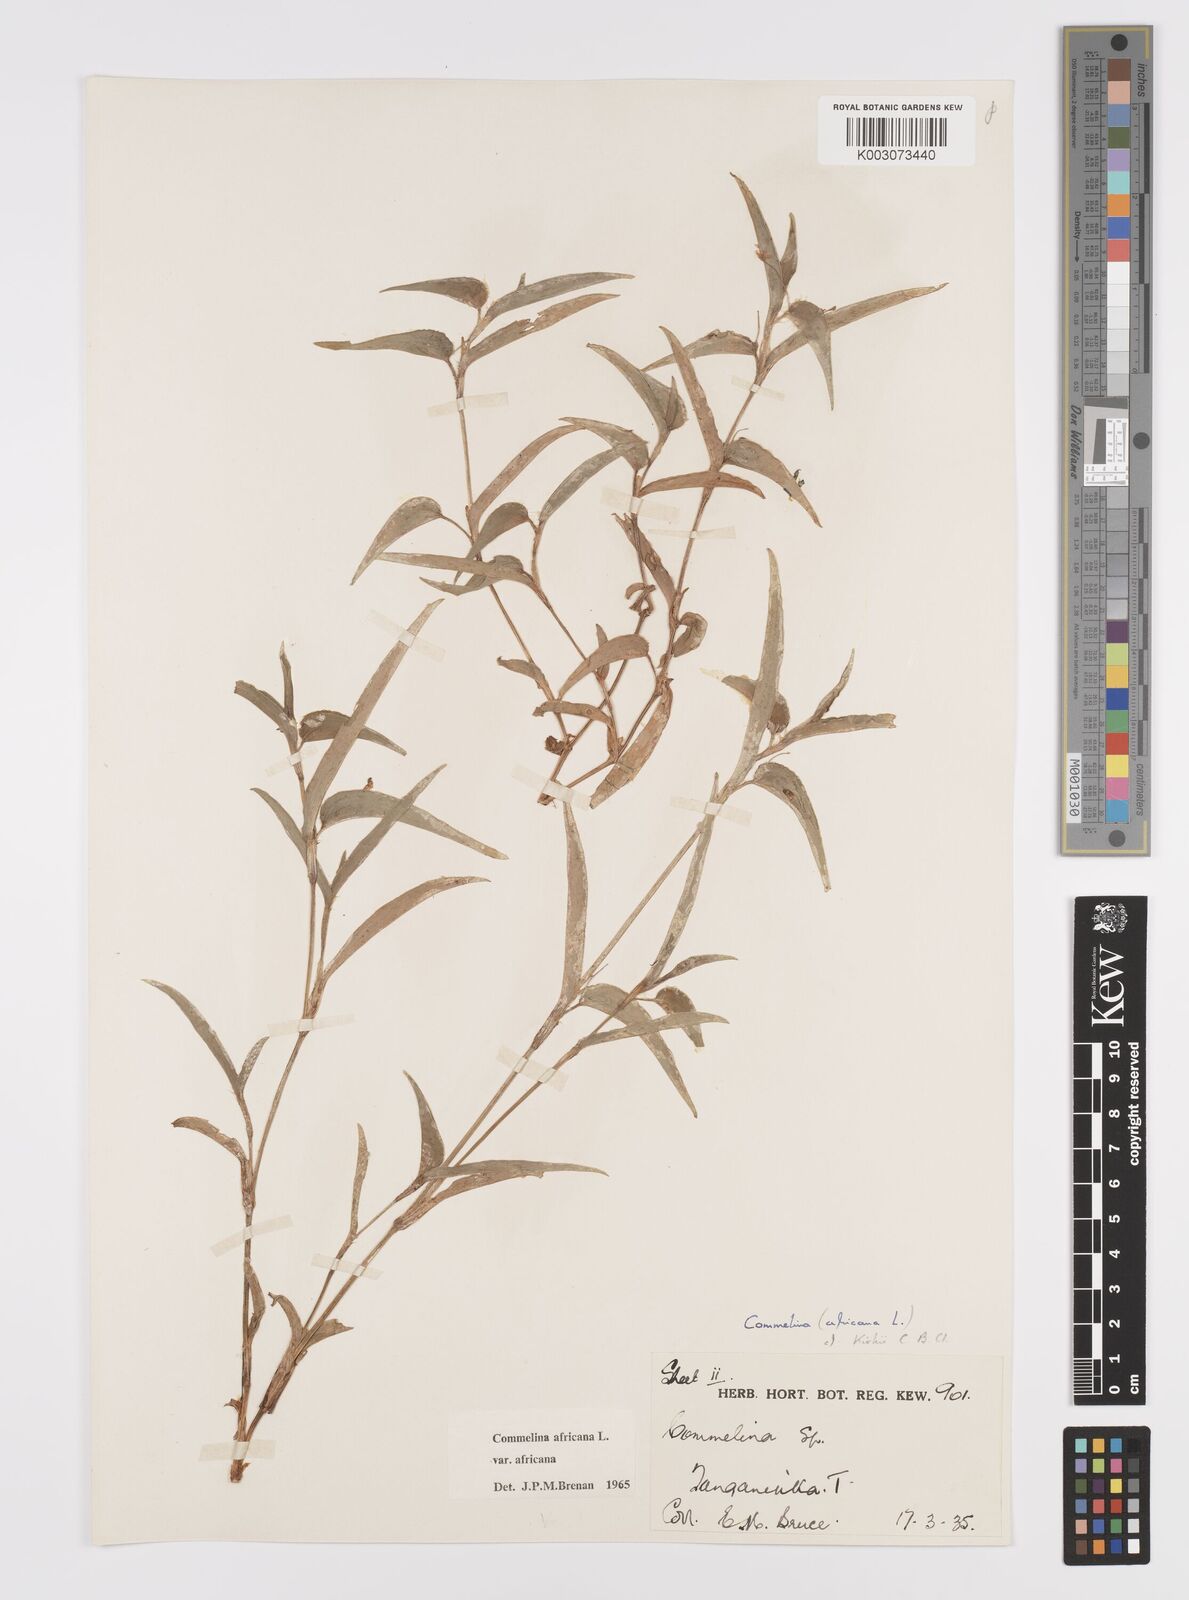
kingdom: Plantae
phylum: Tracheophyta
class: Liliopsida
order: Commelinales
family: Commelinaceae
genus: Commelina
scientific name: Commelina africana
